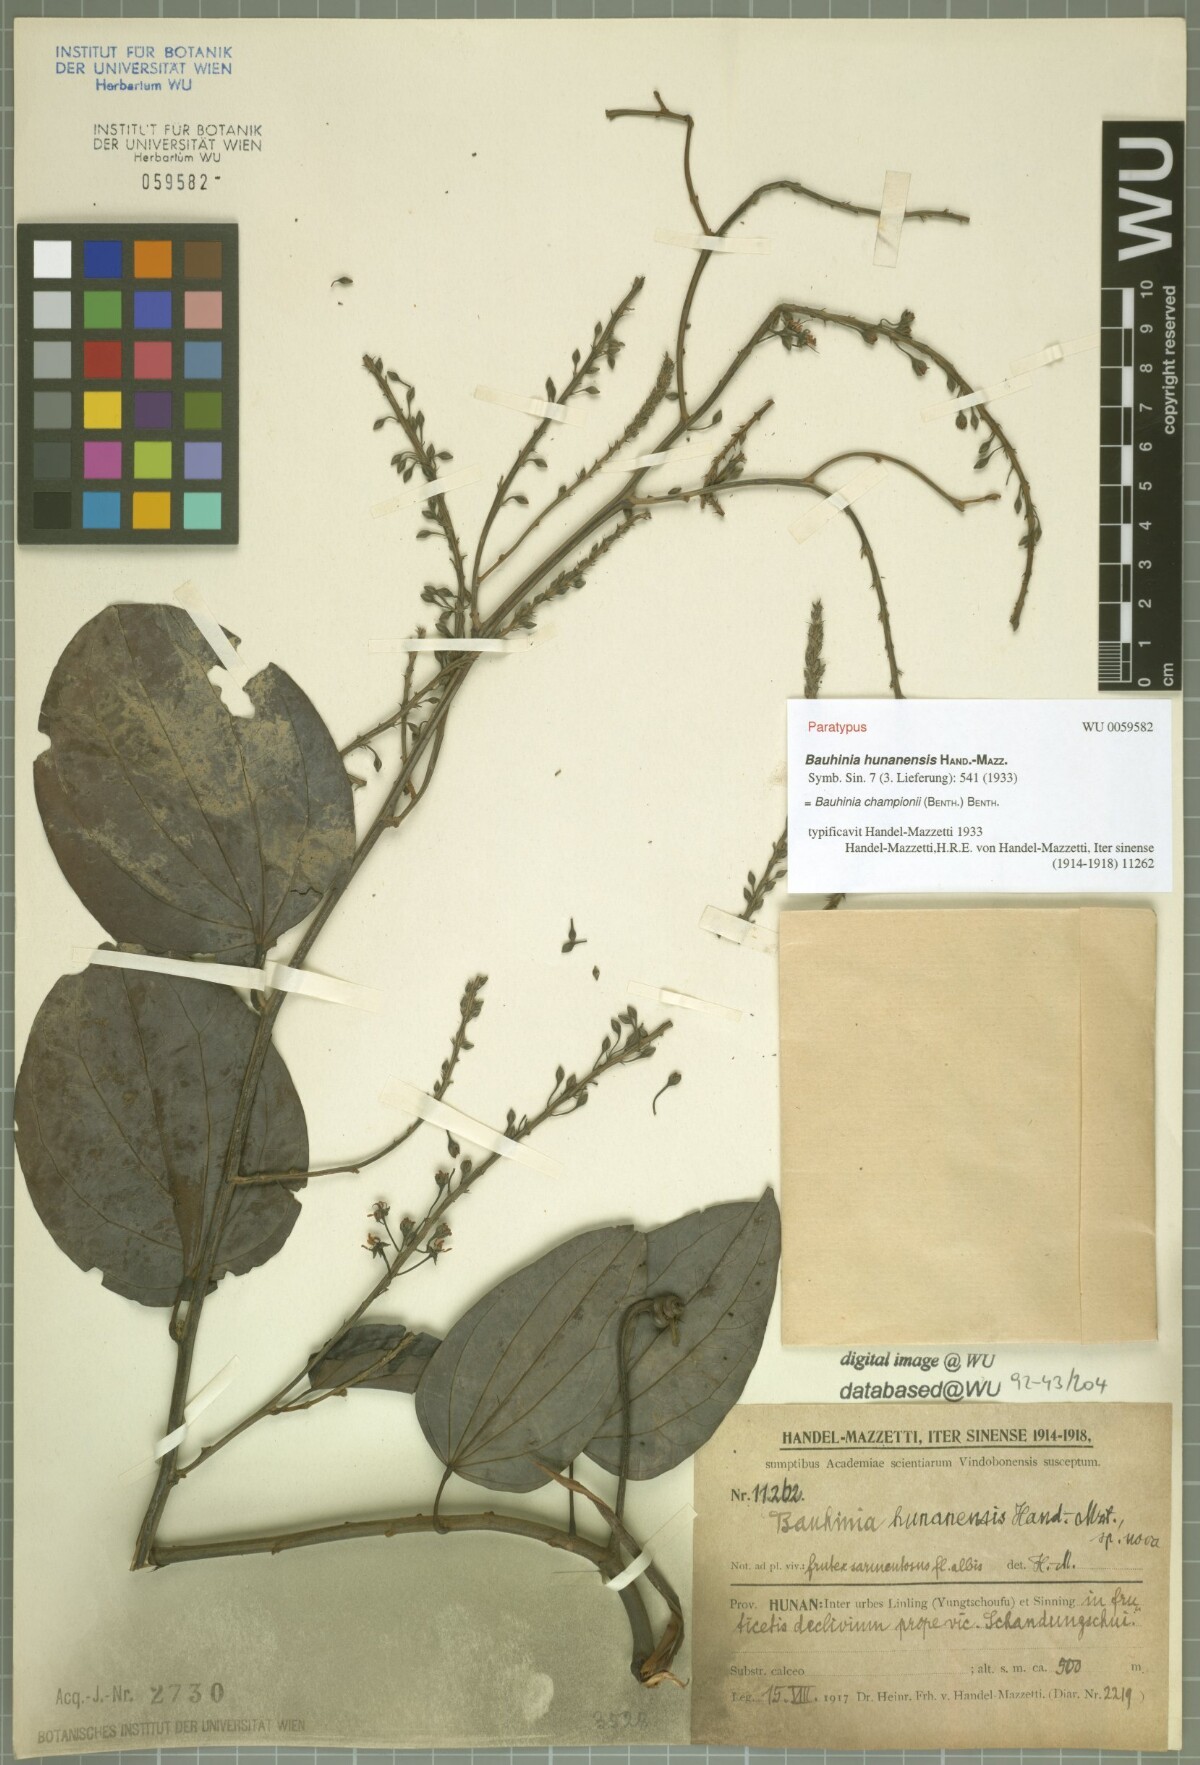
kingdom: Plantae
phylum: Tracheophyta
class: Magnoliopsida
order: Fabales
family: Fabaceae
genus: Phanera
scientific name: Phanera championii
